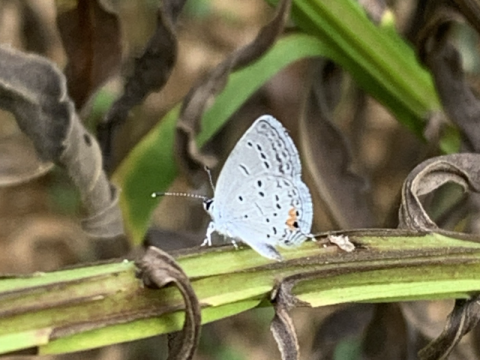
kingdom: Animalia
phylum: Arthropoda
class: Insecta
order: Lepidoptera
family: Lycaenidae
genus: Elkalyce
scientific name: Elkalyce comyntas
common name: Eastern Tailed-Blue
